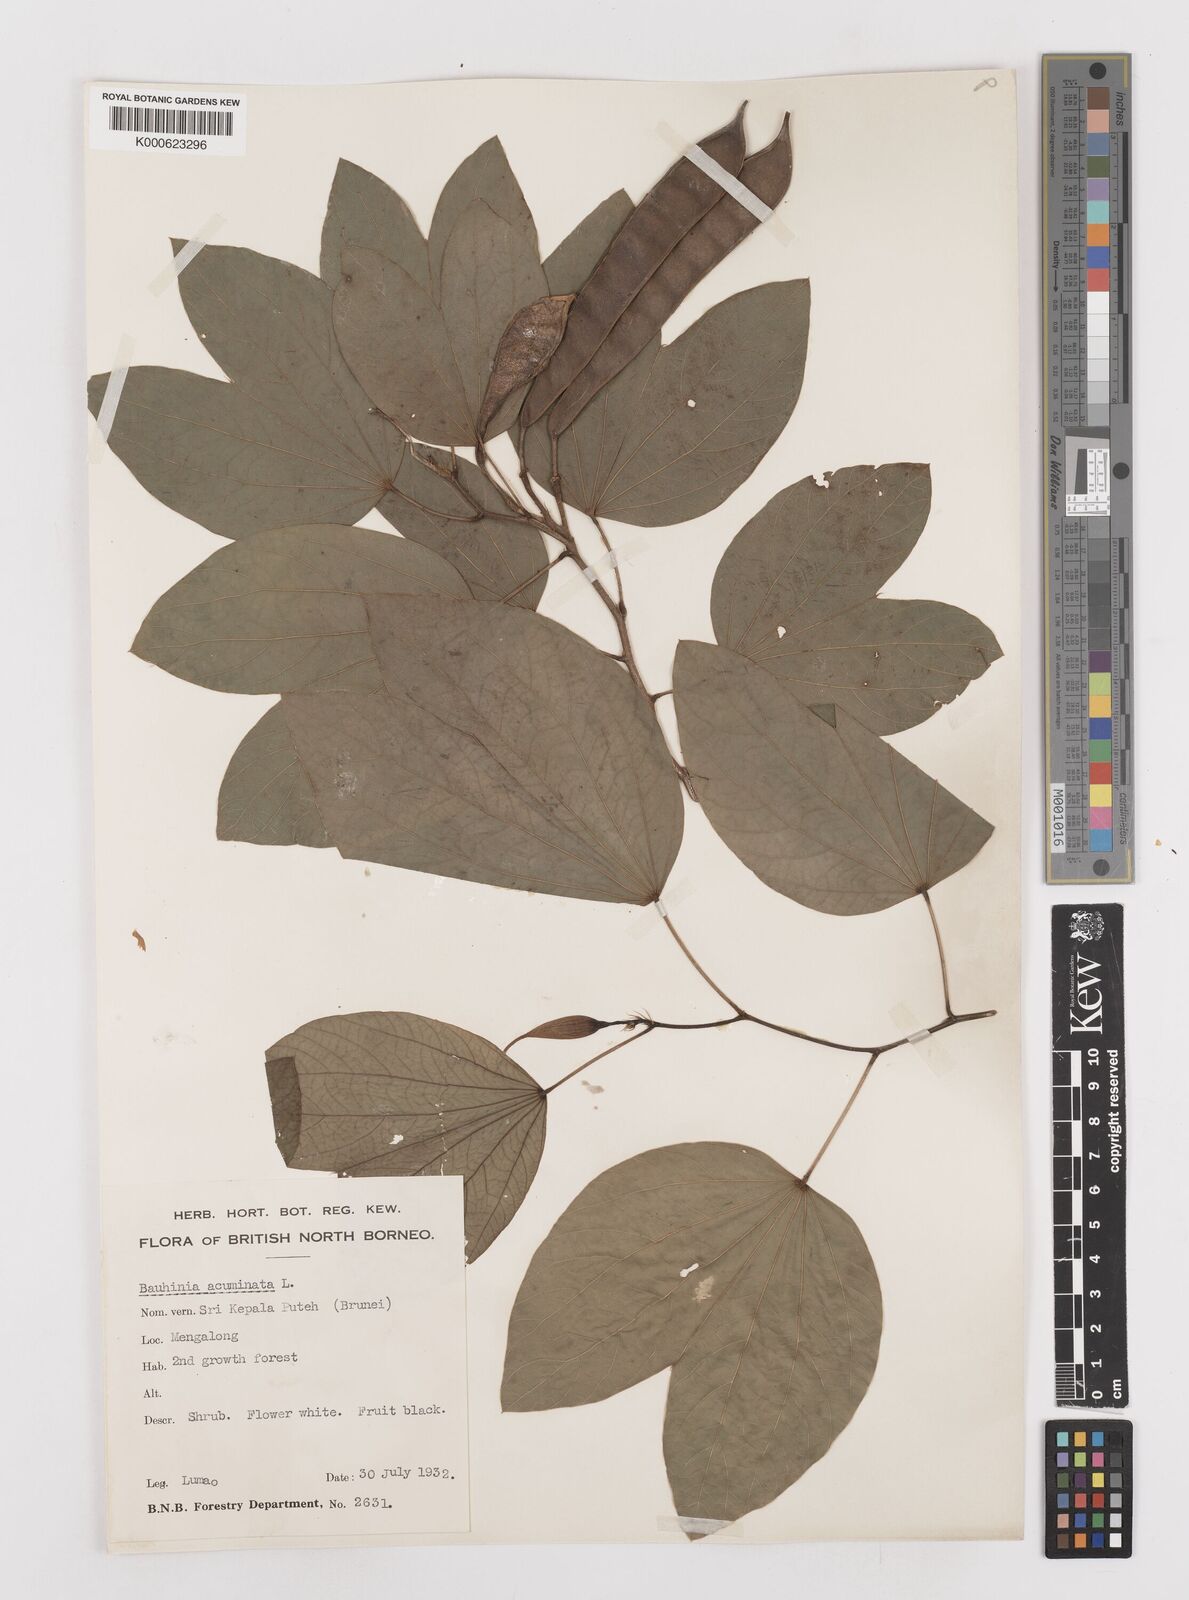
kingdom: Plantae
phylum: Tracheophyta
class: Magnoliopsida
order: Fabales
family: Fabaceae
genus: Bauhinia
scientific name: Bauhinia acuminata
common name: Dwarf white bauhinia
